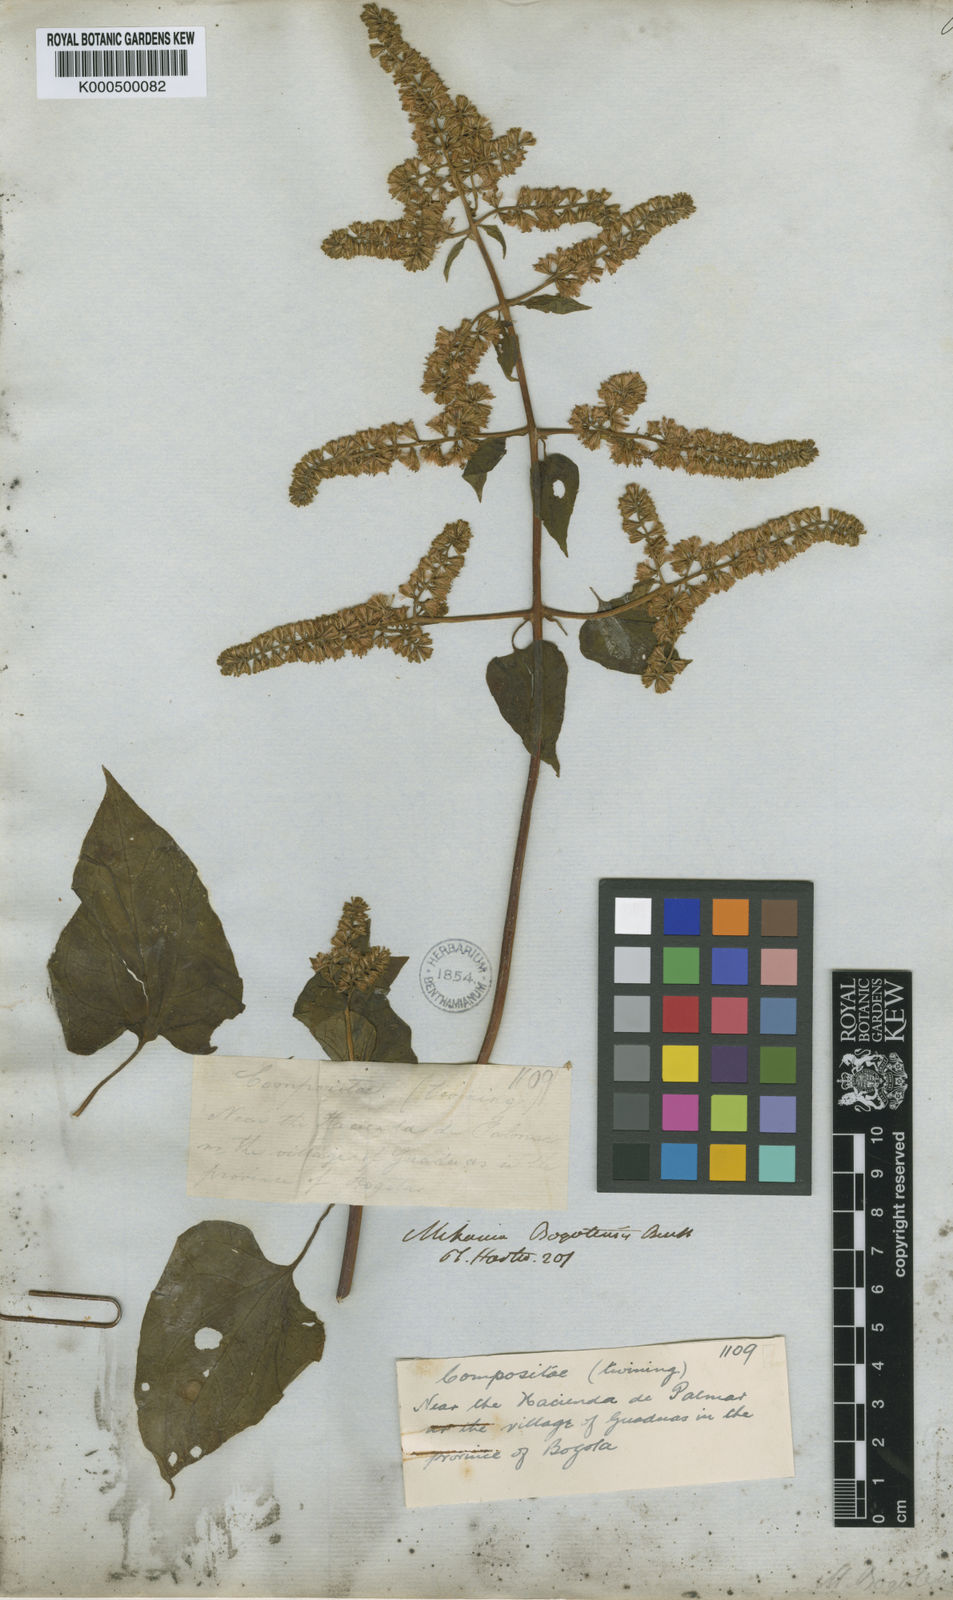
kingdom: Plantae
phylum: Tracheophyta
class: Magnoliopsida
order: Asterales
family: Asteraceae
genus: Mikania
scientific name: Mikania bogotensis
